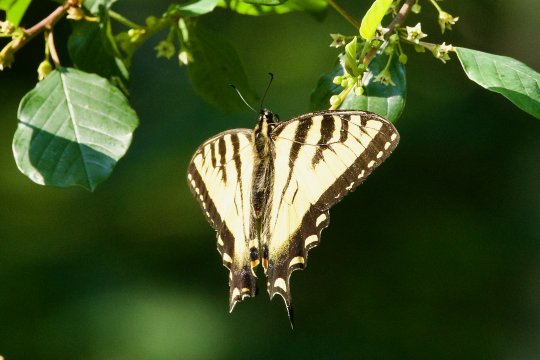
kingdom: Animalia
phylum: Arthropoda
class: Insecta
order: Lepidoptera
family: Papilionidae
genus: Pterourus
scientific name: Pterourus canadensis
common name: Canadian Tiger Swallowtail
